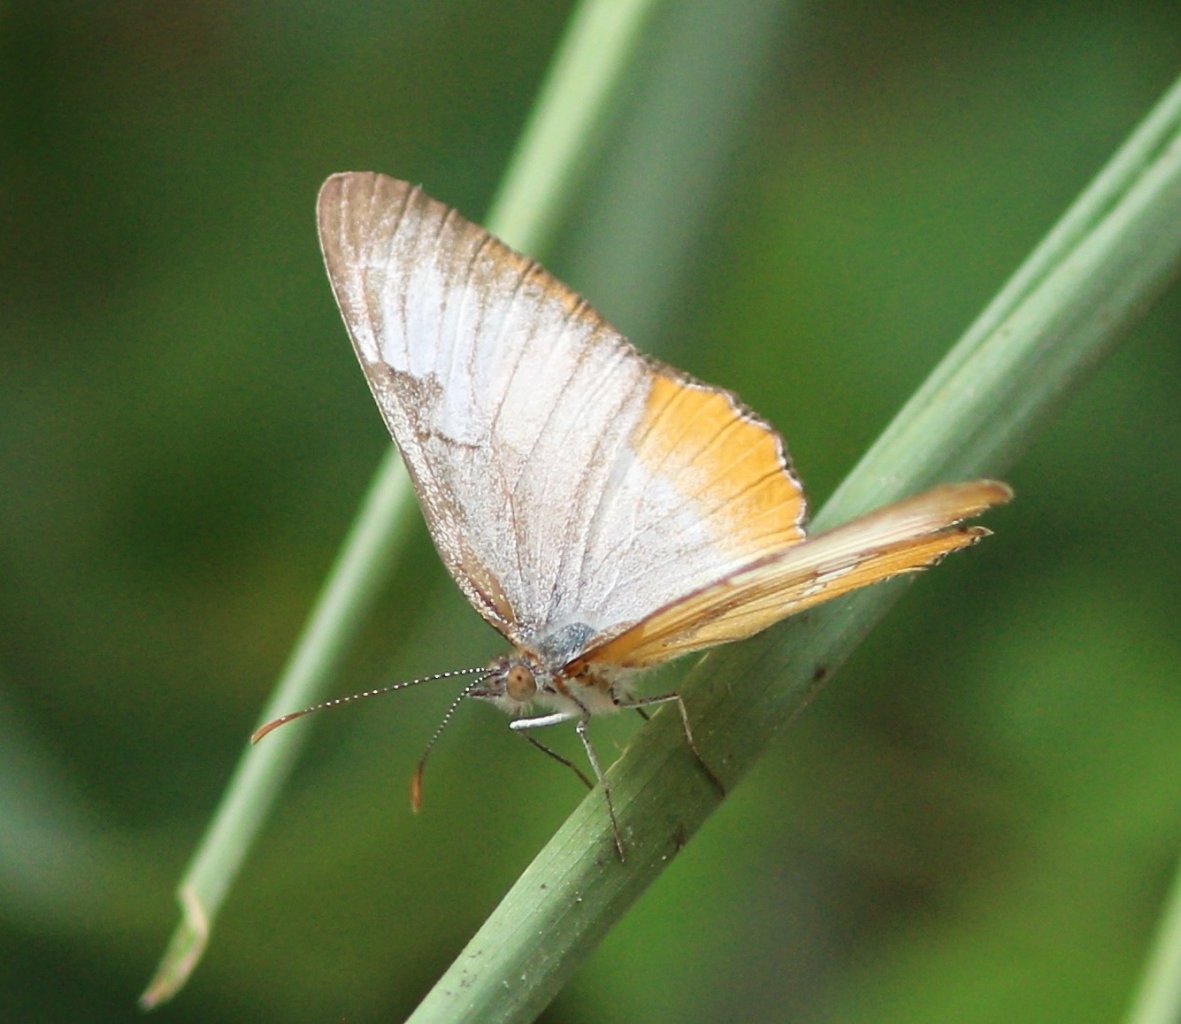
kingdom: Animalia
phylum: Arthropoda
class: Insecta
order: Lepidoptera
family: Nymphalidae
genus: Mestra
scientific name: Mestra amymone
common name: Common Mestra
